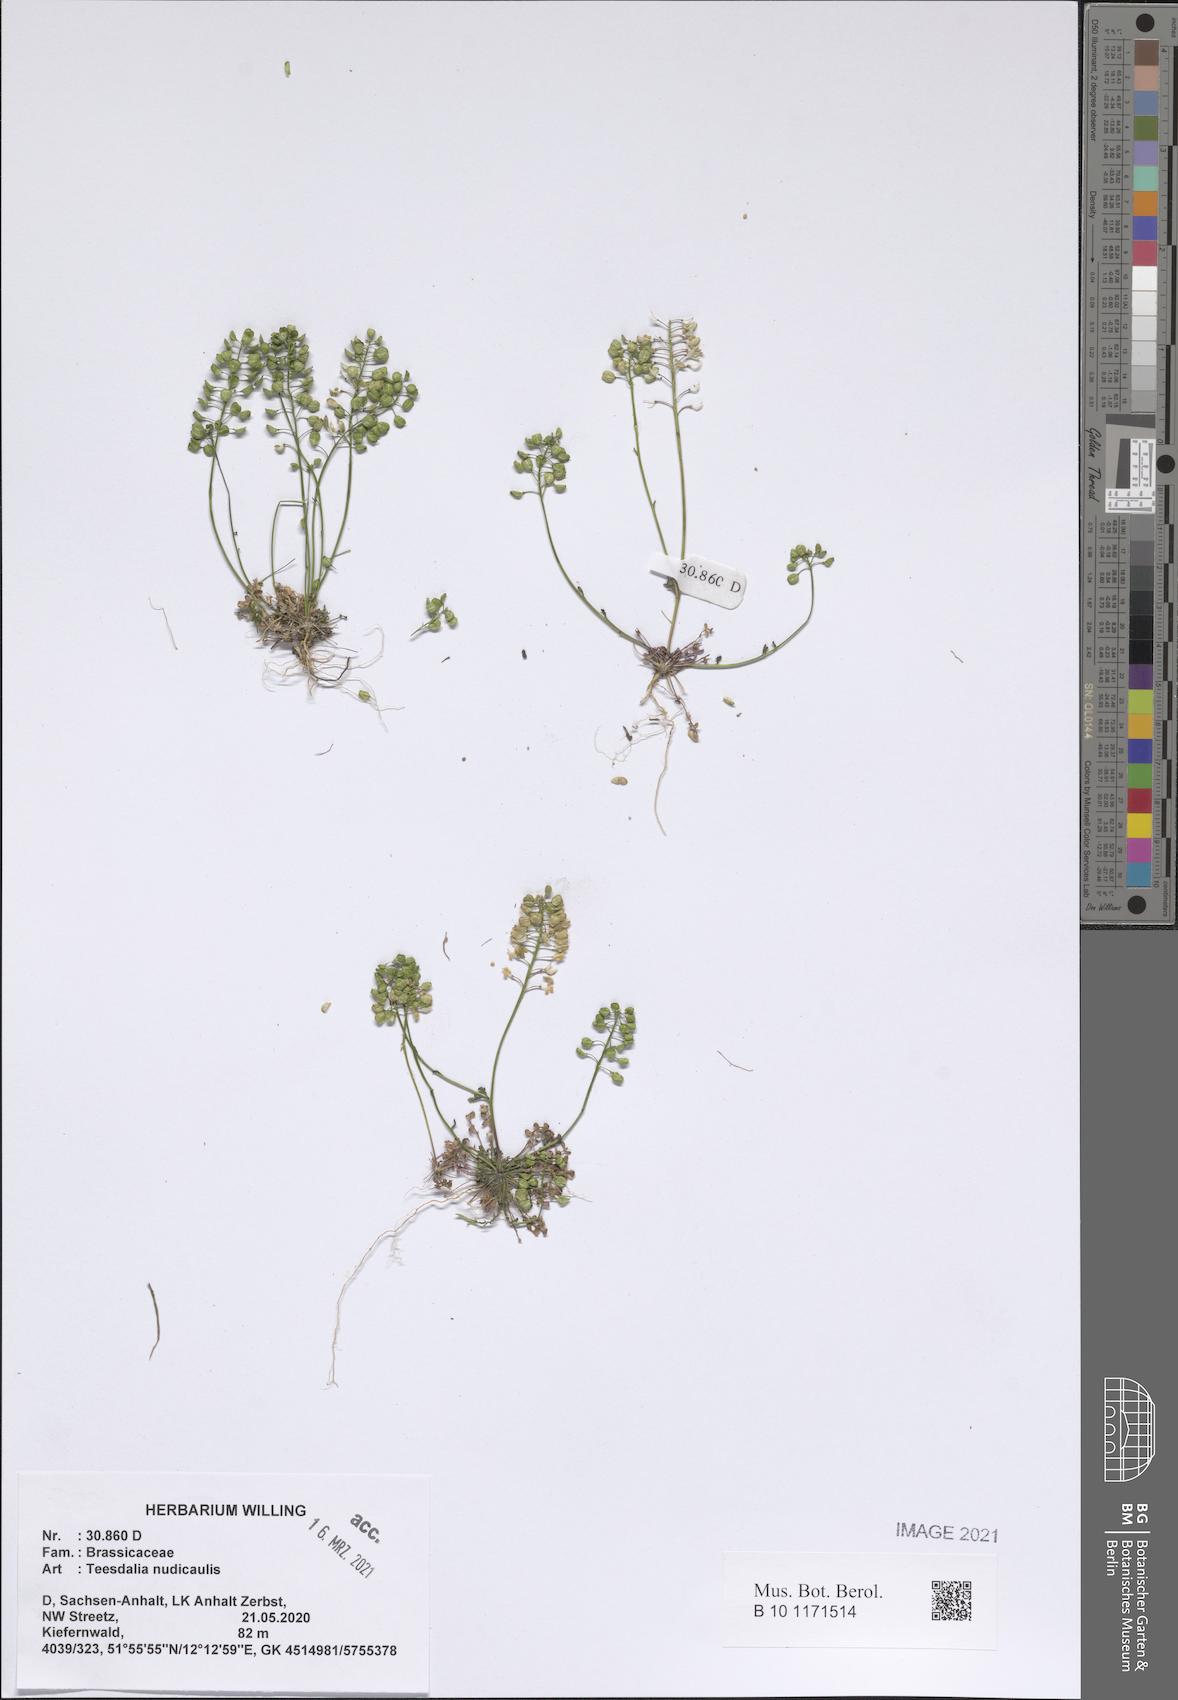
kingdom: Plantae
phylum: Tracheophyta
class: Magnoliopsida
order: Brassicales
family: Brassicaceae
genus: Teesdalia
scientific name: Teesdalia nudicaulis
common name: Shepherd's cress
